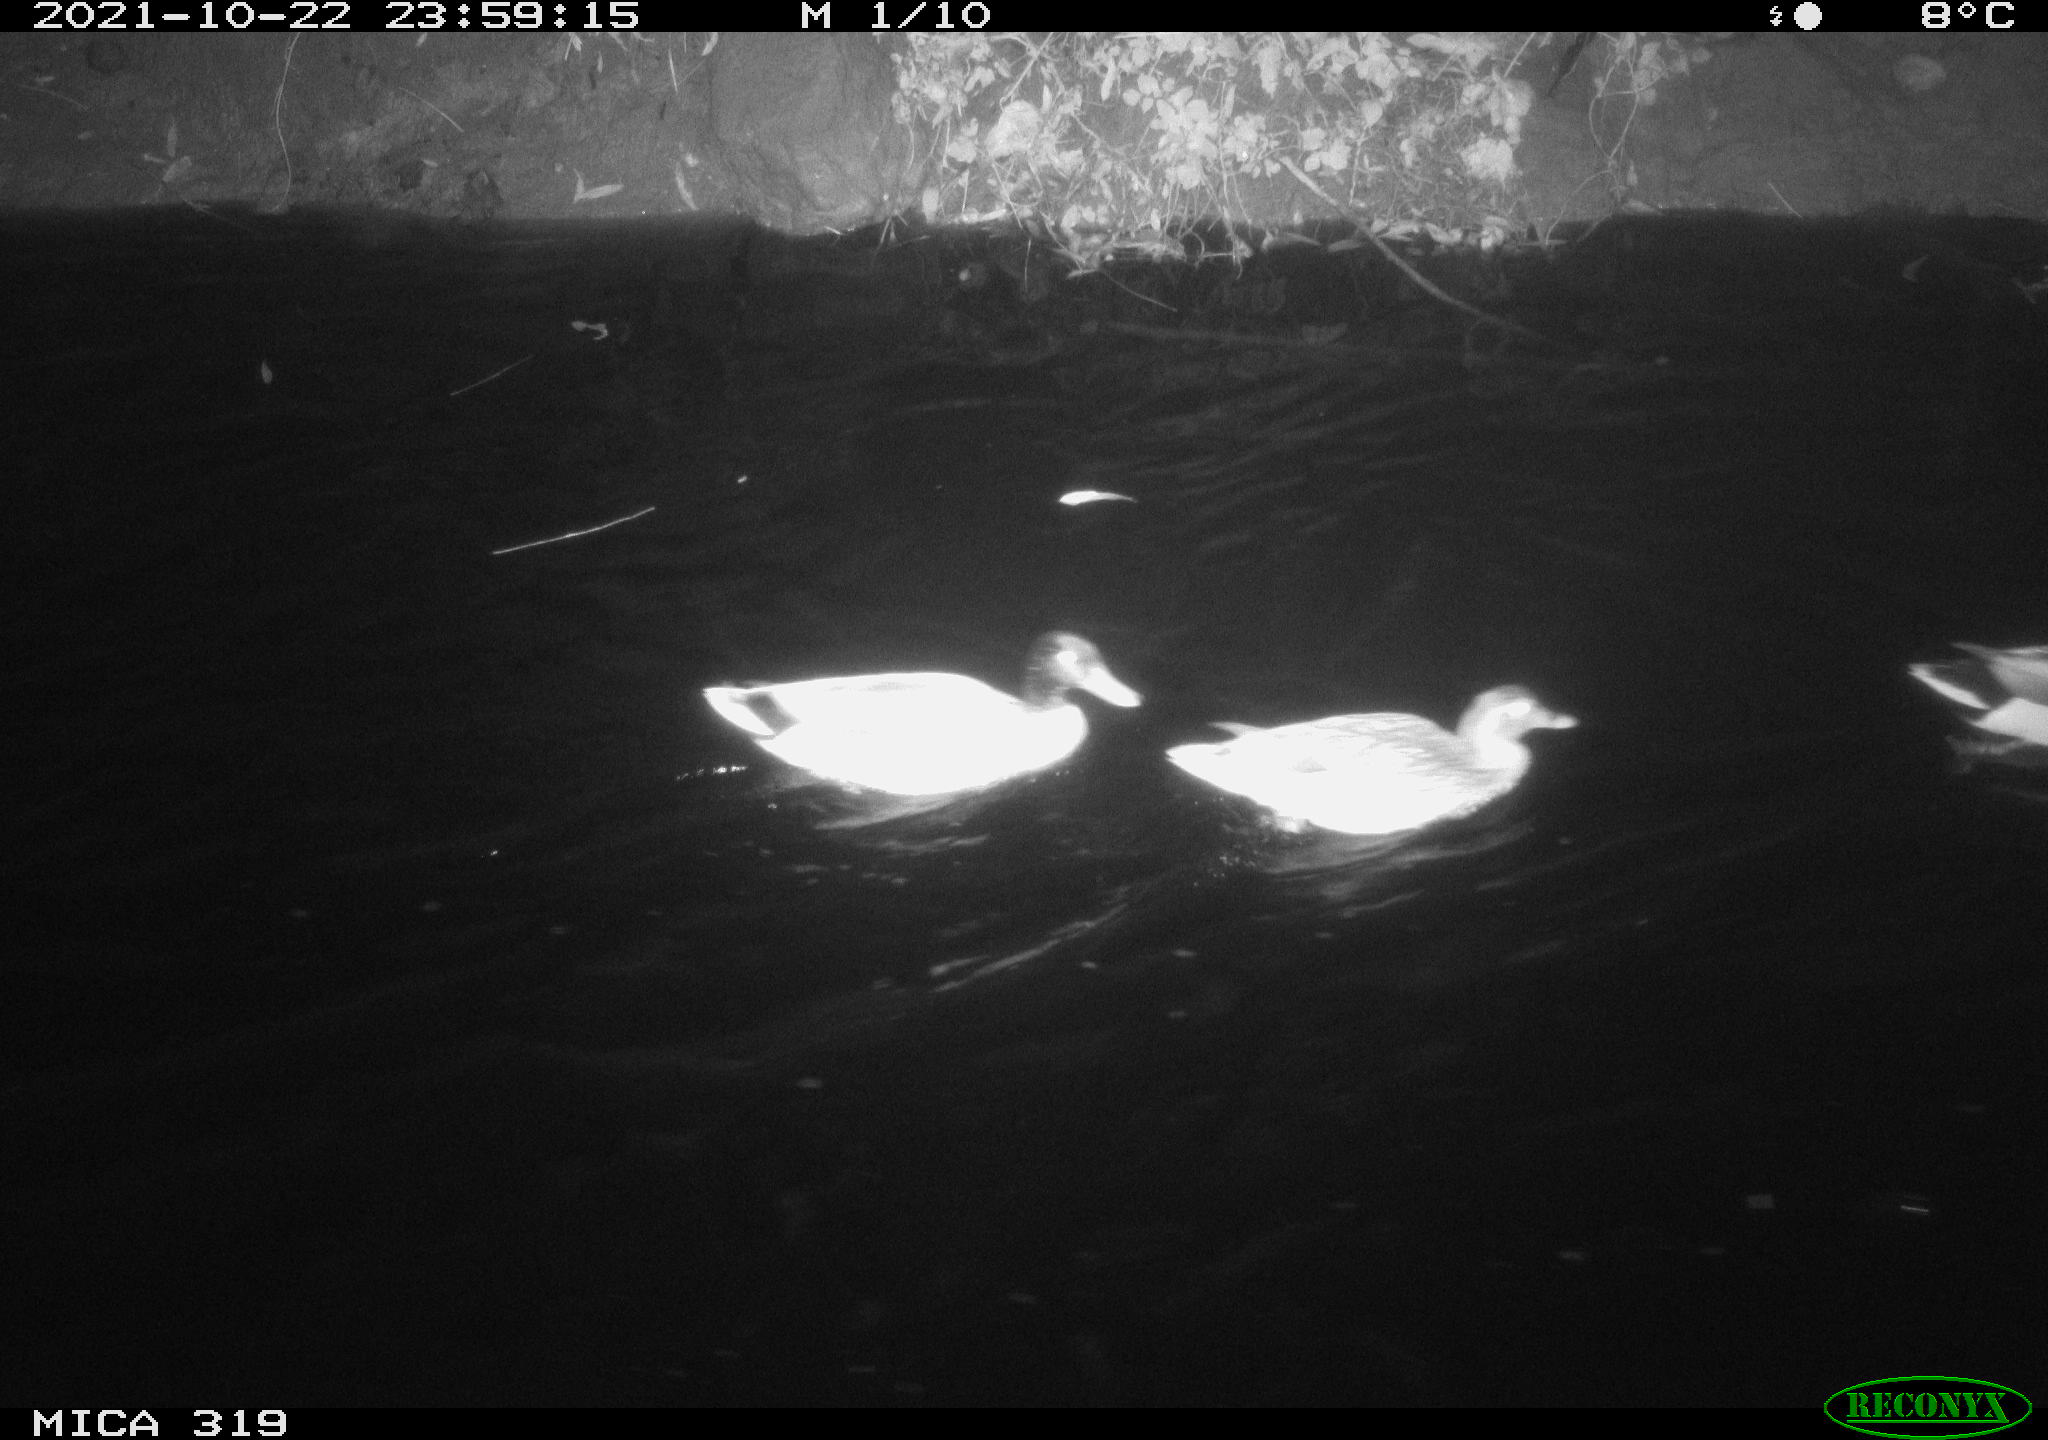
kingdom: Animalia
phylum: Chordata
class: Aves
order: Anseriformes
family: Anatidae
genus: Anas
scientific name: Anas platyrhynchos
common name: Mallard
